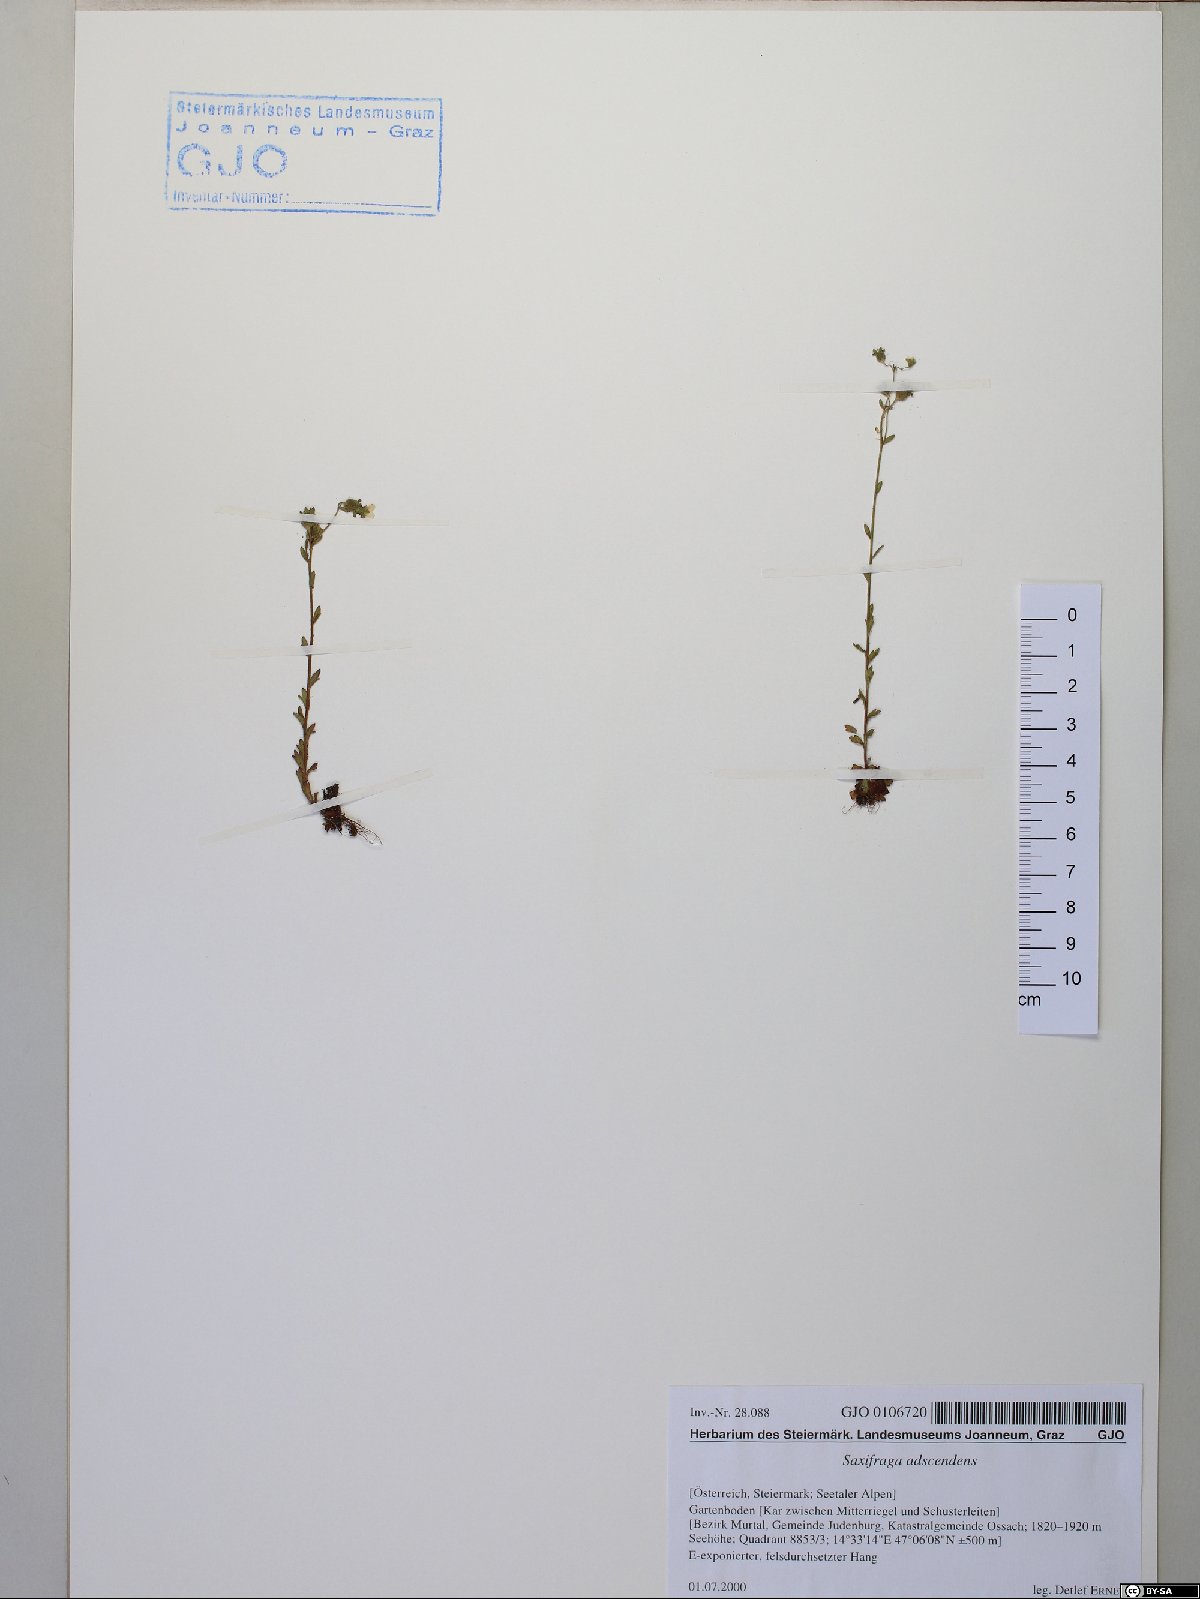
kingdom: Plantae
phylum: Tracheophyta
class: Magnoliopsida
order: Saxifragales
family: Saxifragaceae
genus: Saxifraga
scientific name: Saxifraga adscendens
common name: Ascending saxifrage
